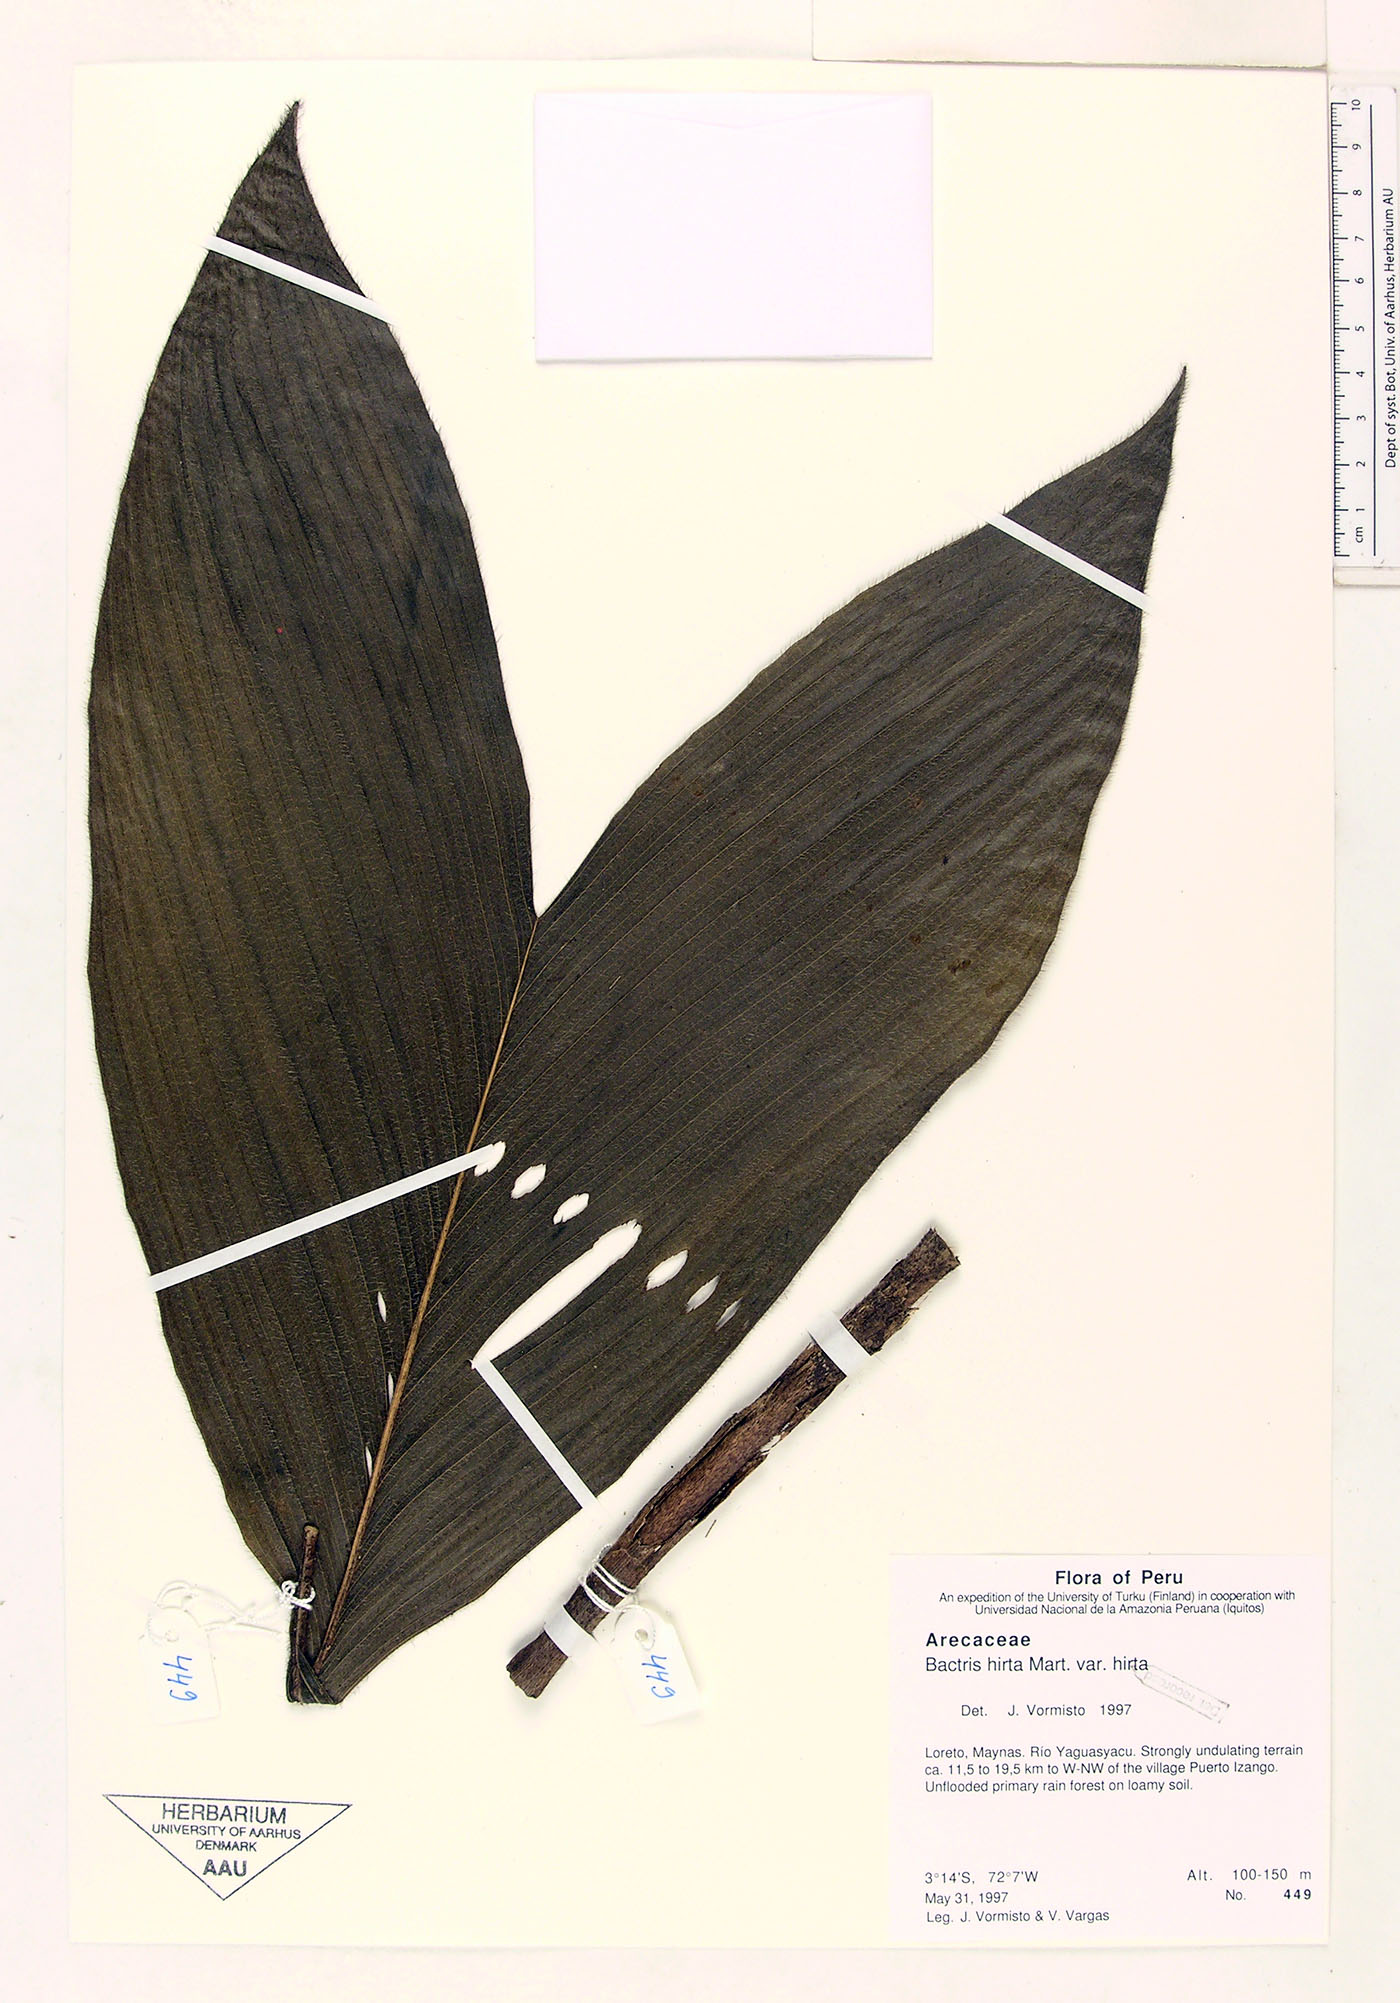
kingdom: Plantae
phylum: Tracheophyta
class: Liliopsida
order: Arecales
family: Arecaceae
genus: Bactris
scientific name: Bactris hirta
